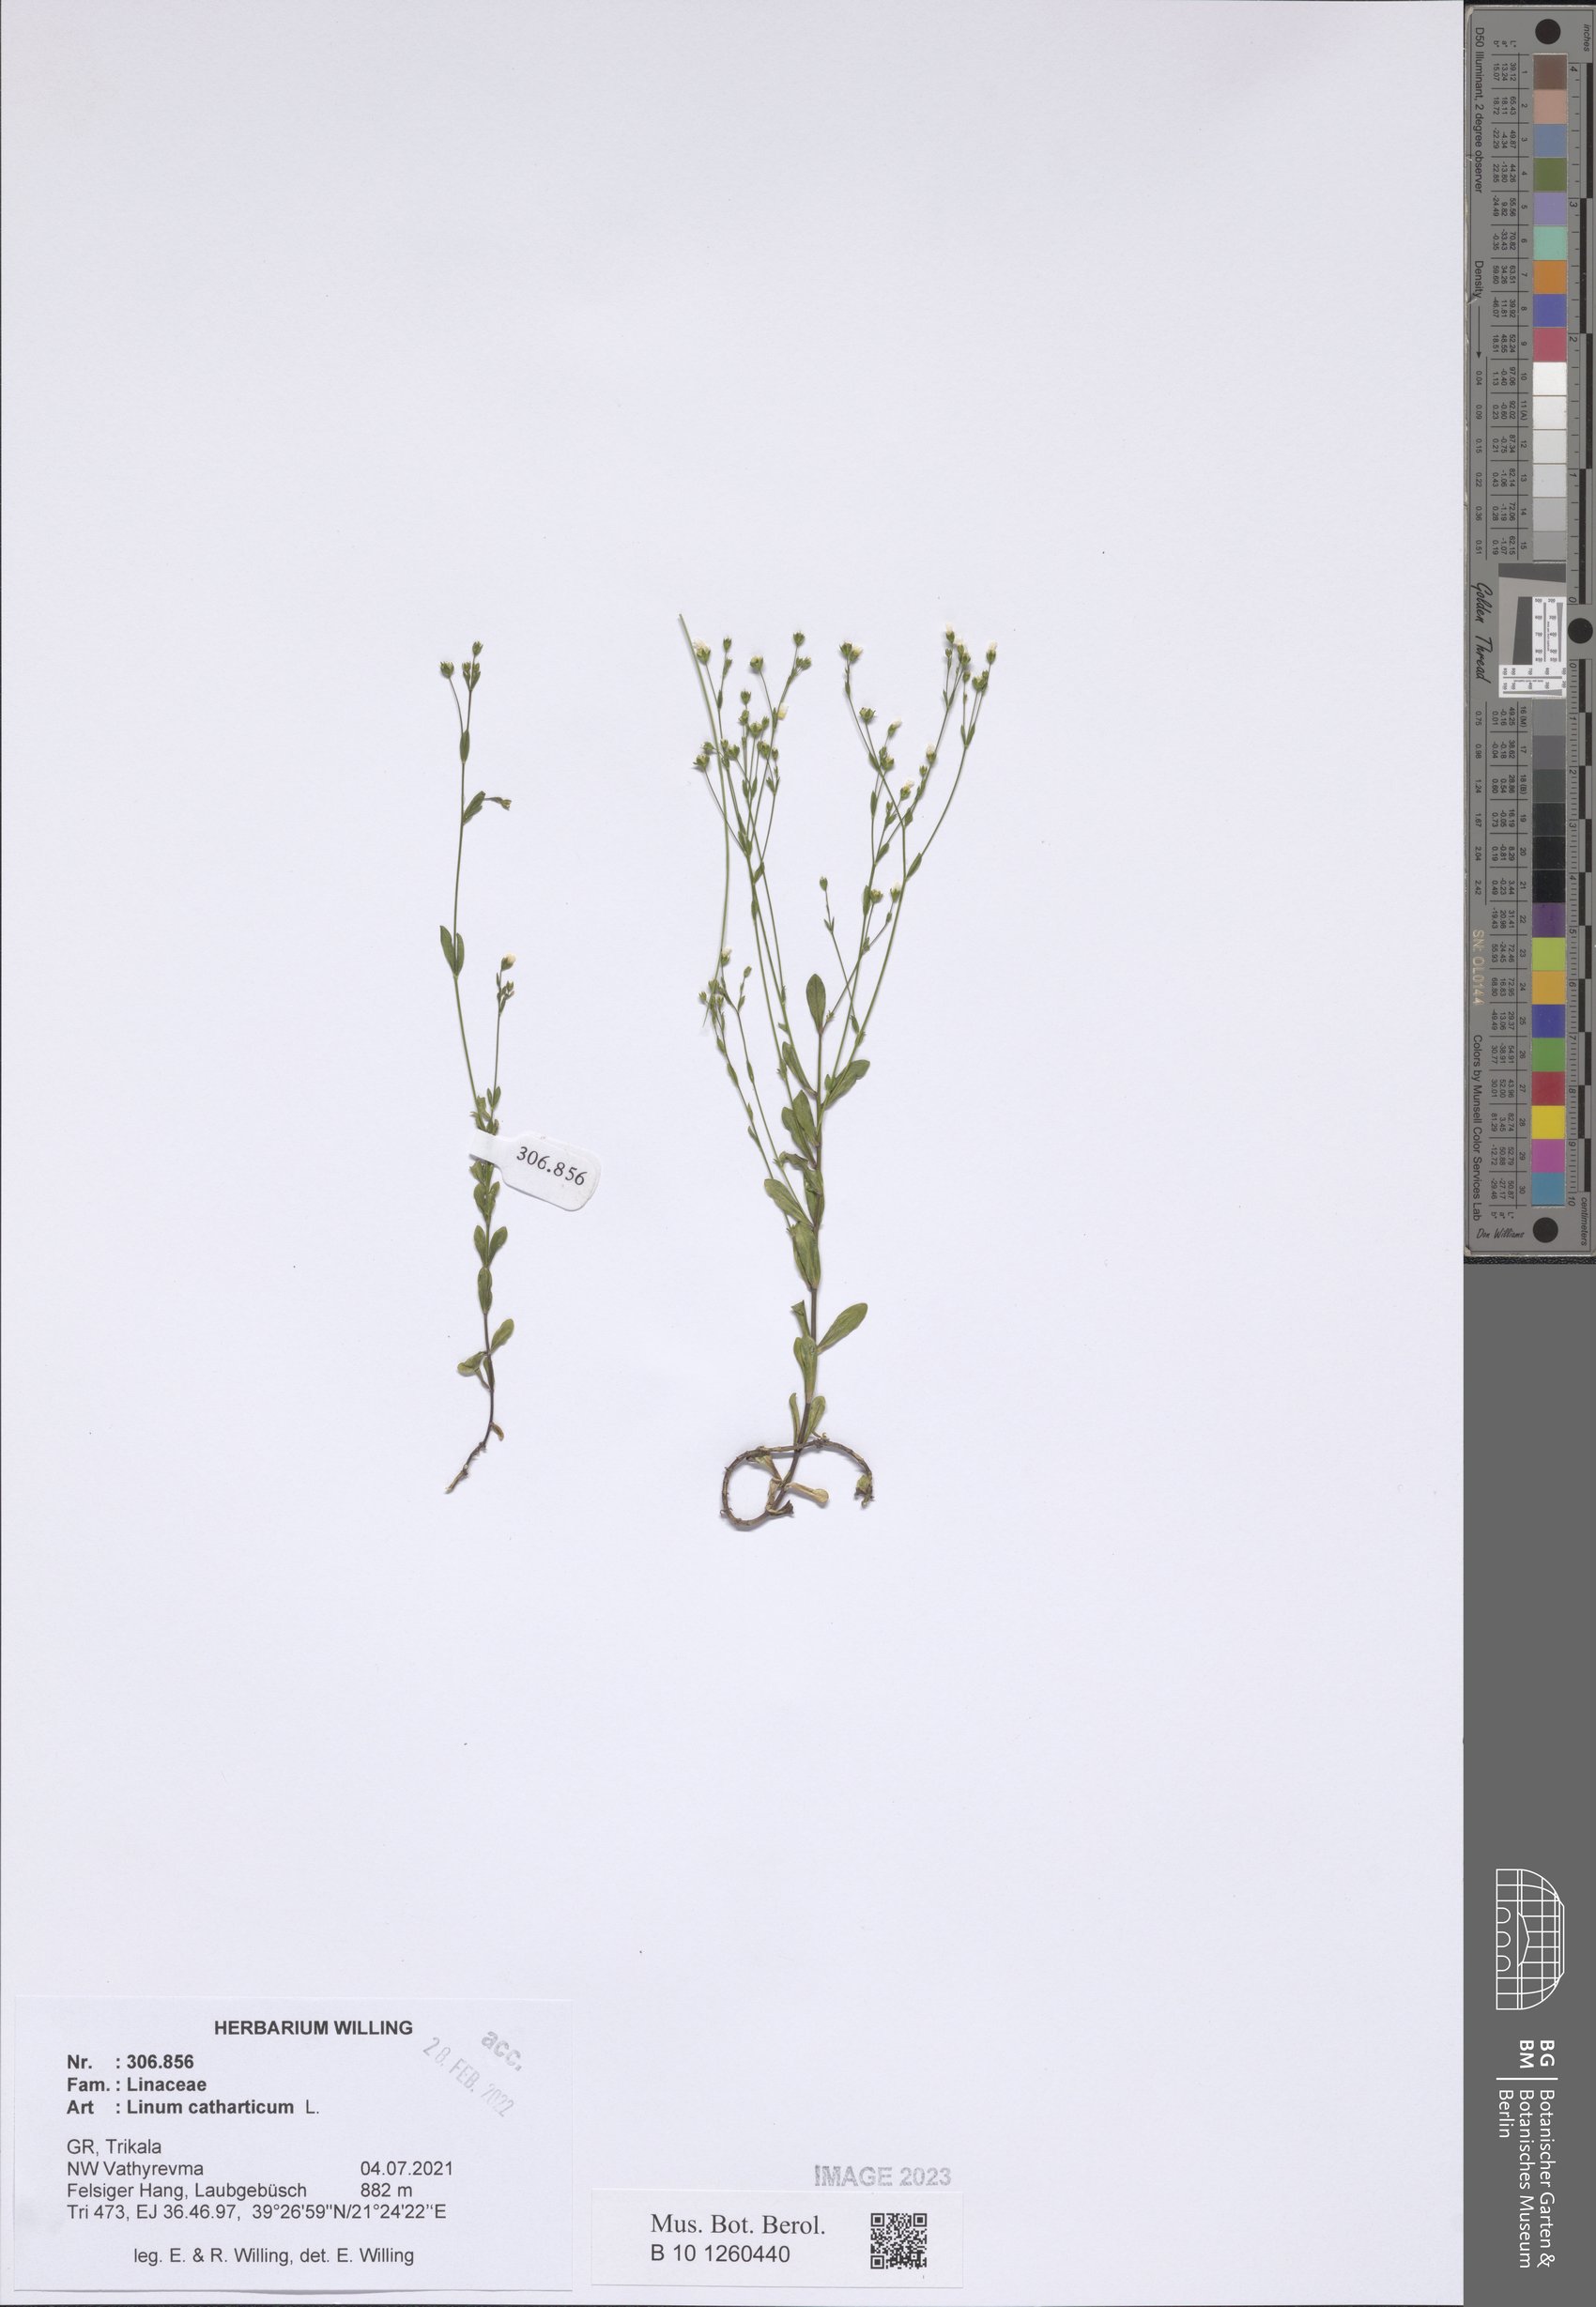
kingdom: Plantae
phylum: Tracheophyta
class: Magnoliopsida
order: Malpighiales
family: Linaceae
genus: Linum
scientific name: Linum catharticum
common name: Fairy flax
